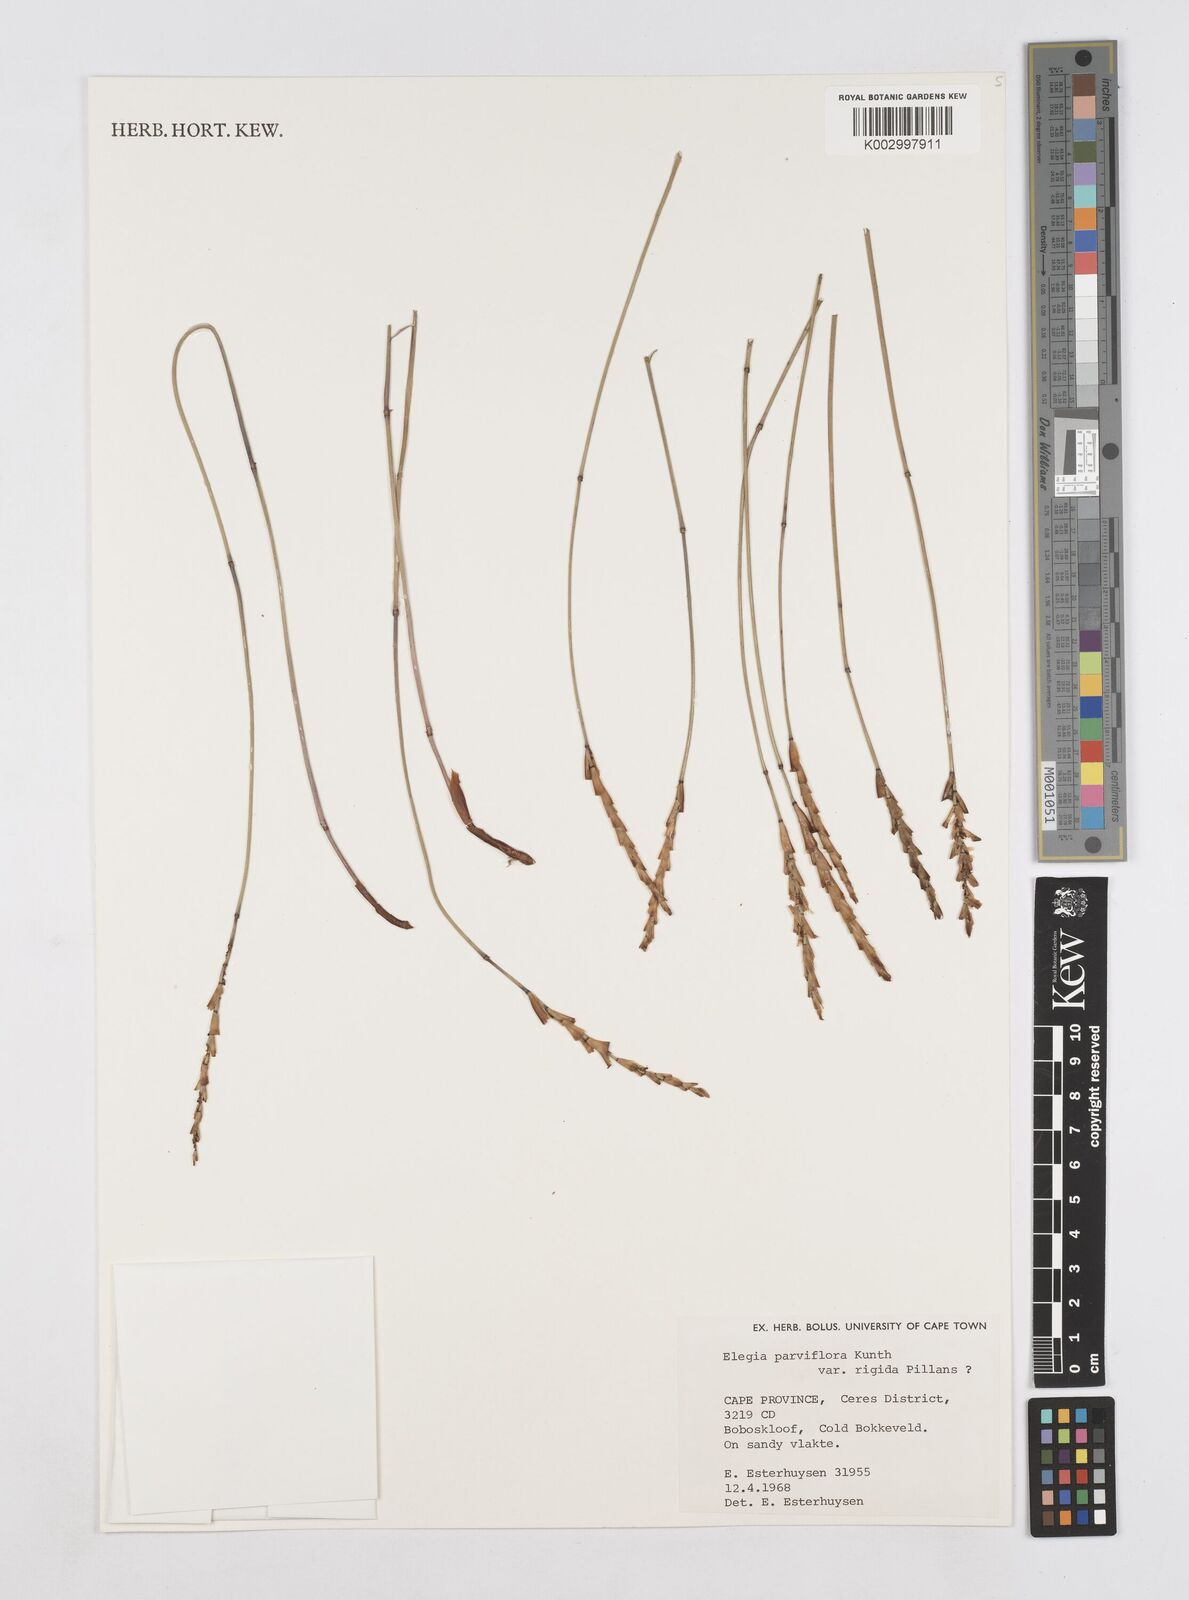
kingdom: Plantae
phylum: Tracheophyta
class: Liliopsida
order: Poales
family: Restionaceae
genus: Elegia
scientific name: Elegia rigida
